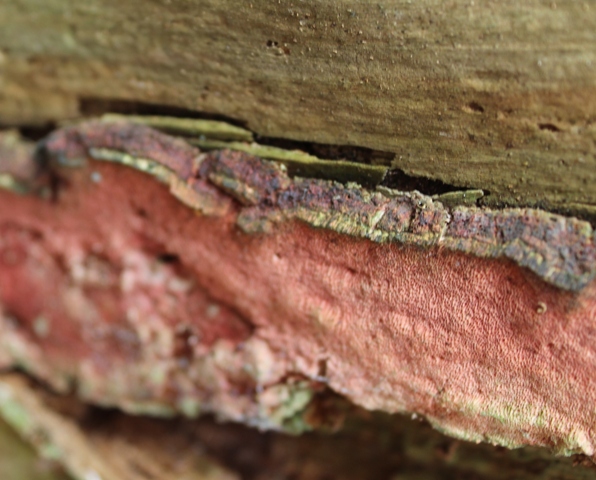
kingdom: Fungi
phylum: Basidiomycota
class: Agaricomycetes
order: Polyporales
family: Fomitopsidaceae
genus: Neoantrodia
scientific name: Neoantrodia serialis
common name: række-sejporesvamp
